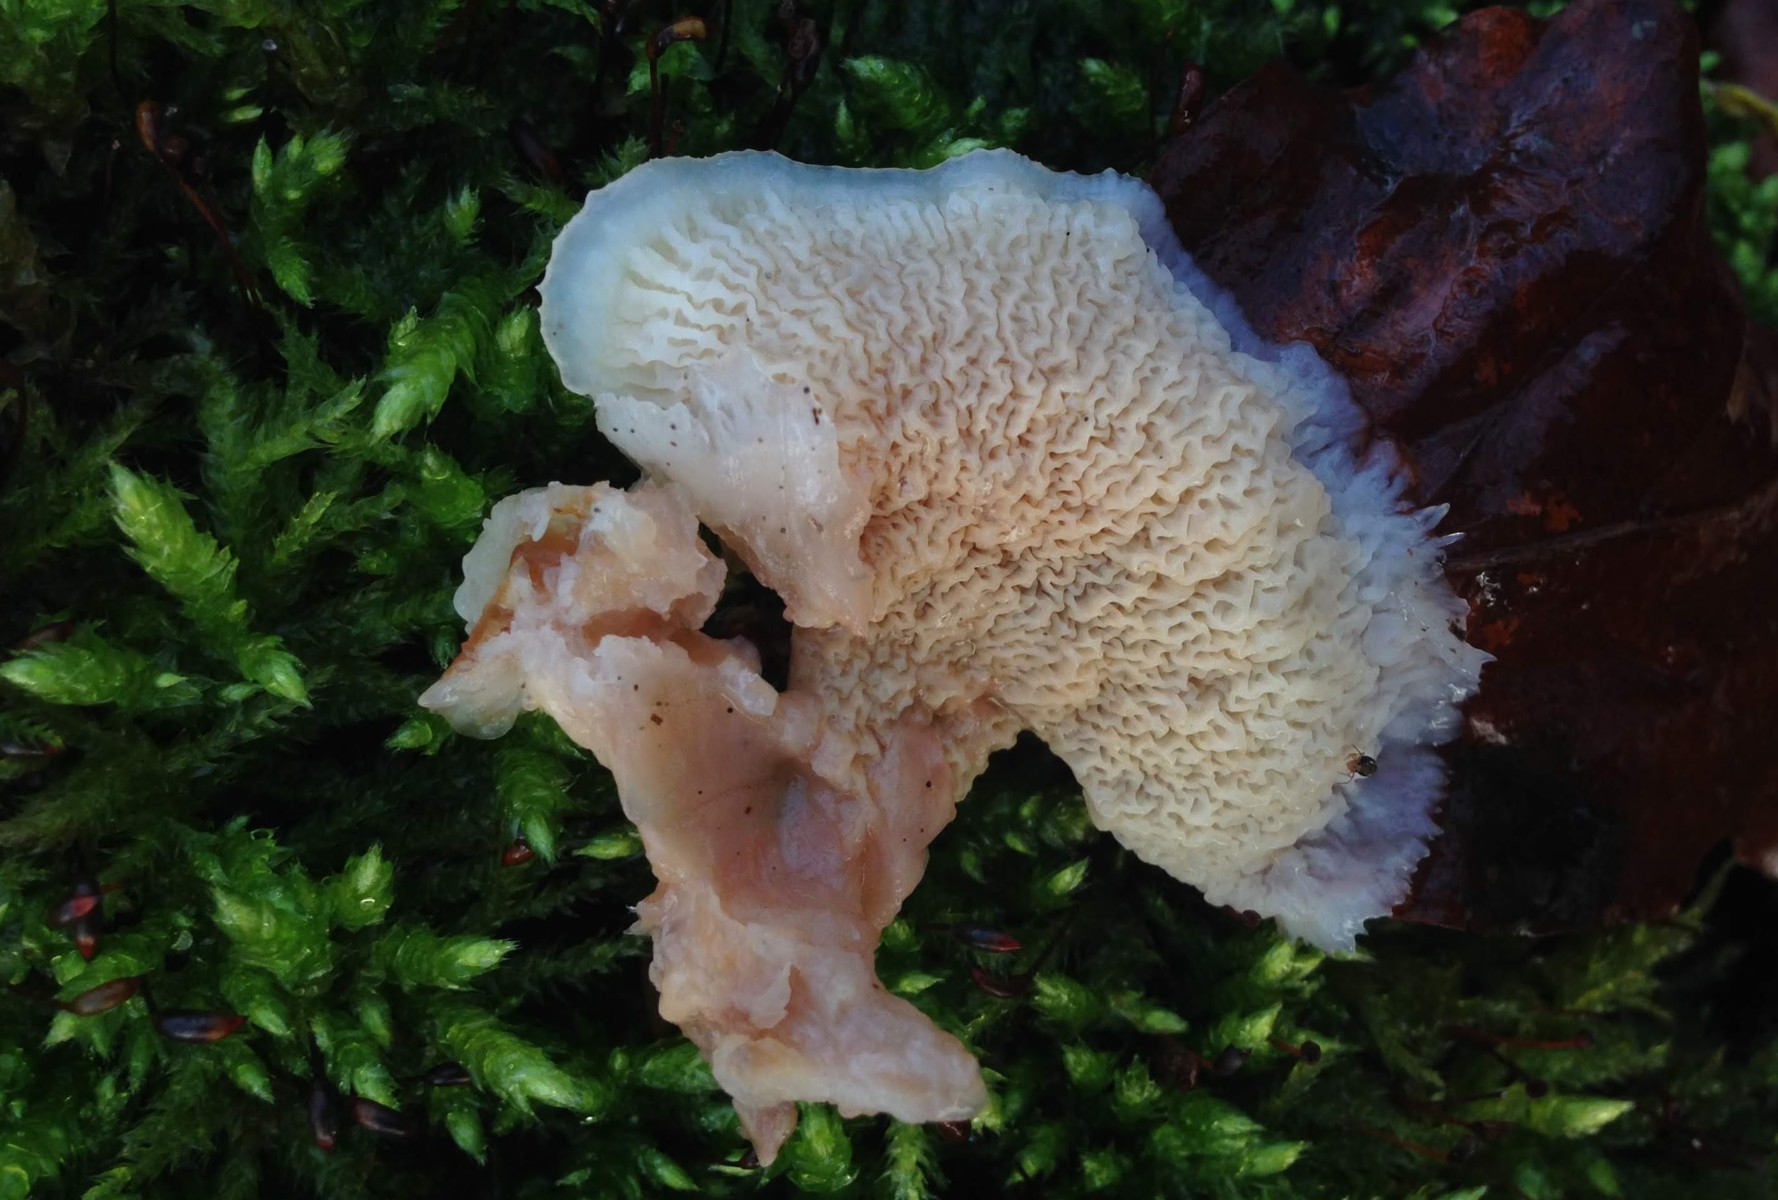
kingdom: Fungi
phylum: Basidiomycota
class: Agaricomycetes
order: Polyporales
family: Meruliaceae
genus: Phlebia
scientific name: Phlebia tremellosa
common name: bævrende åresvamp
